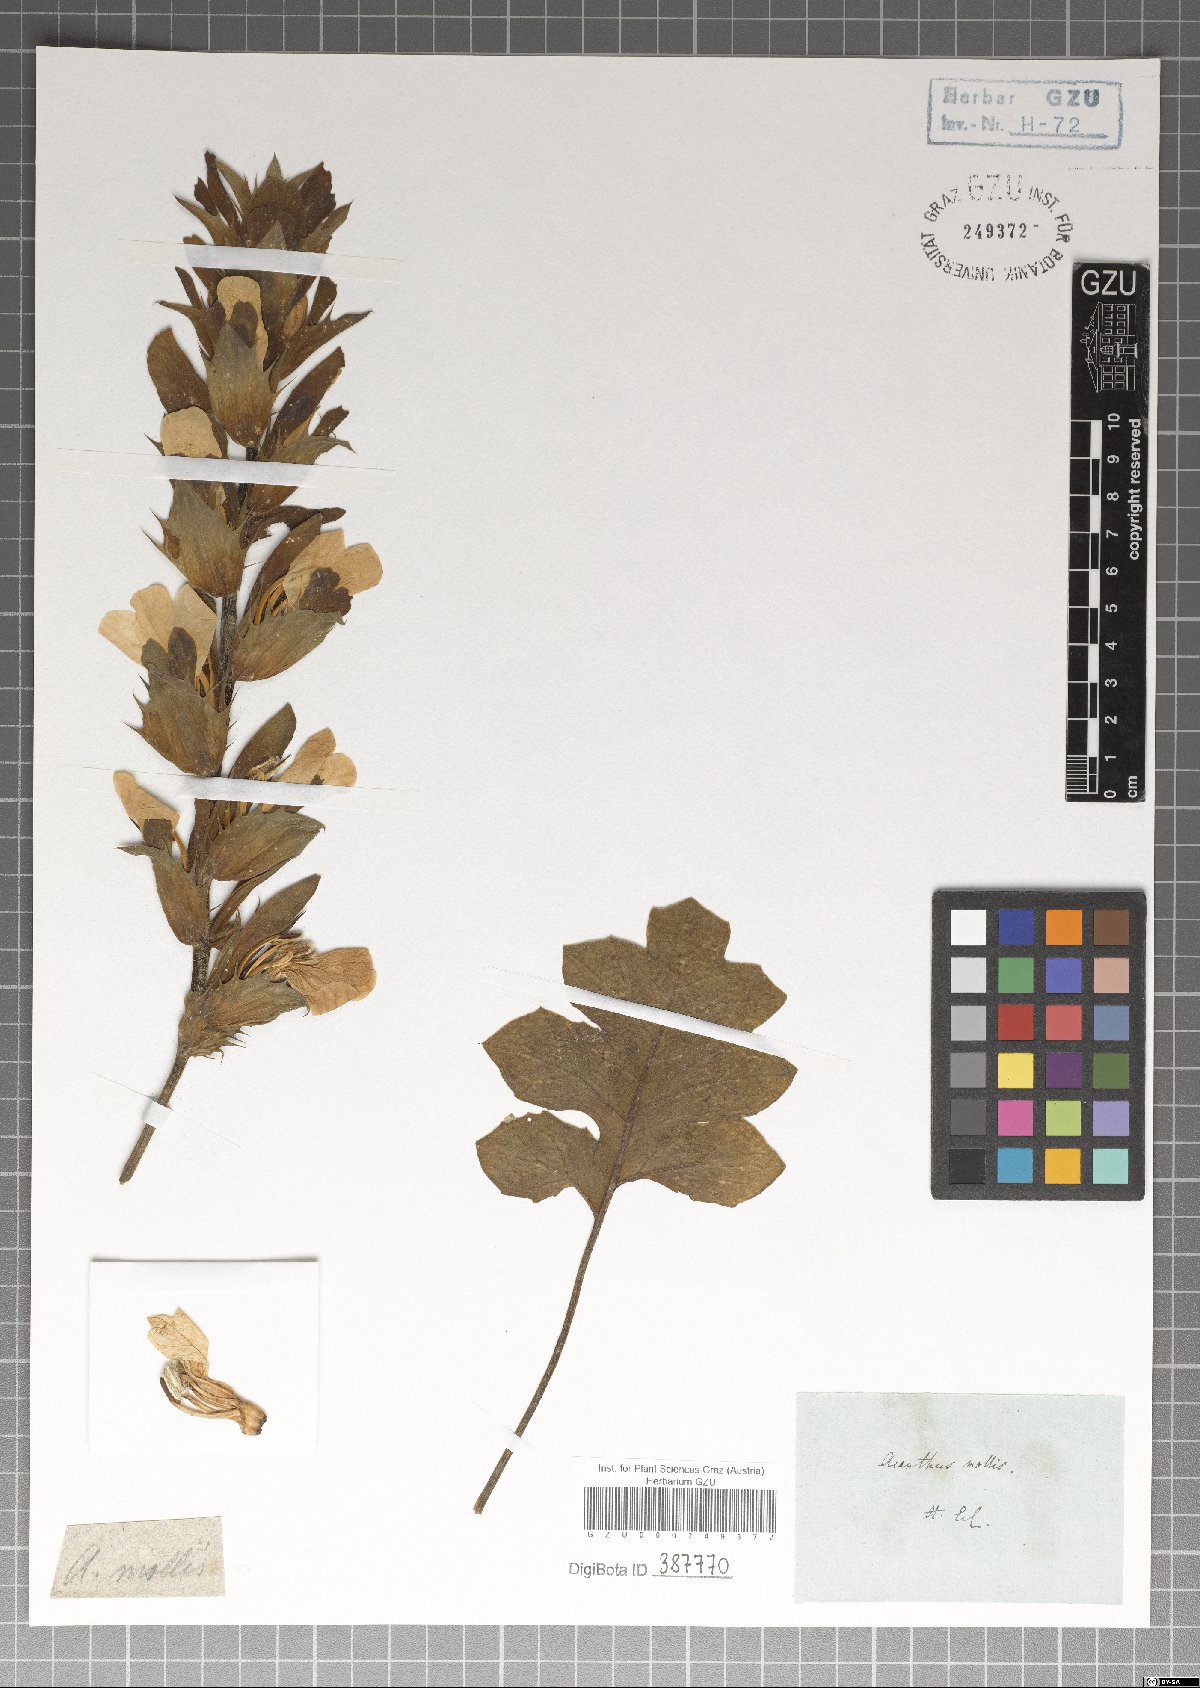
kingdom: Plantae
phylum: Tracheophyta
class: Magnoliopsida
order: Lamiales
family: Acanthaceae
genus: Acanthus
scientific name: Acanthus mollis
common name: Bear's-breech
